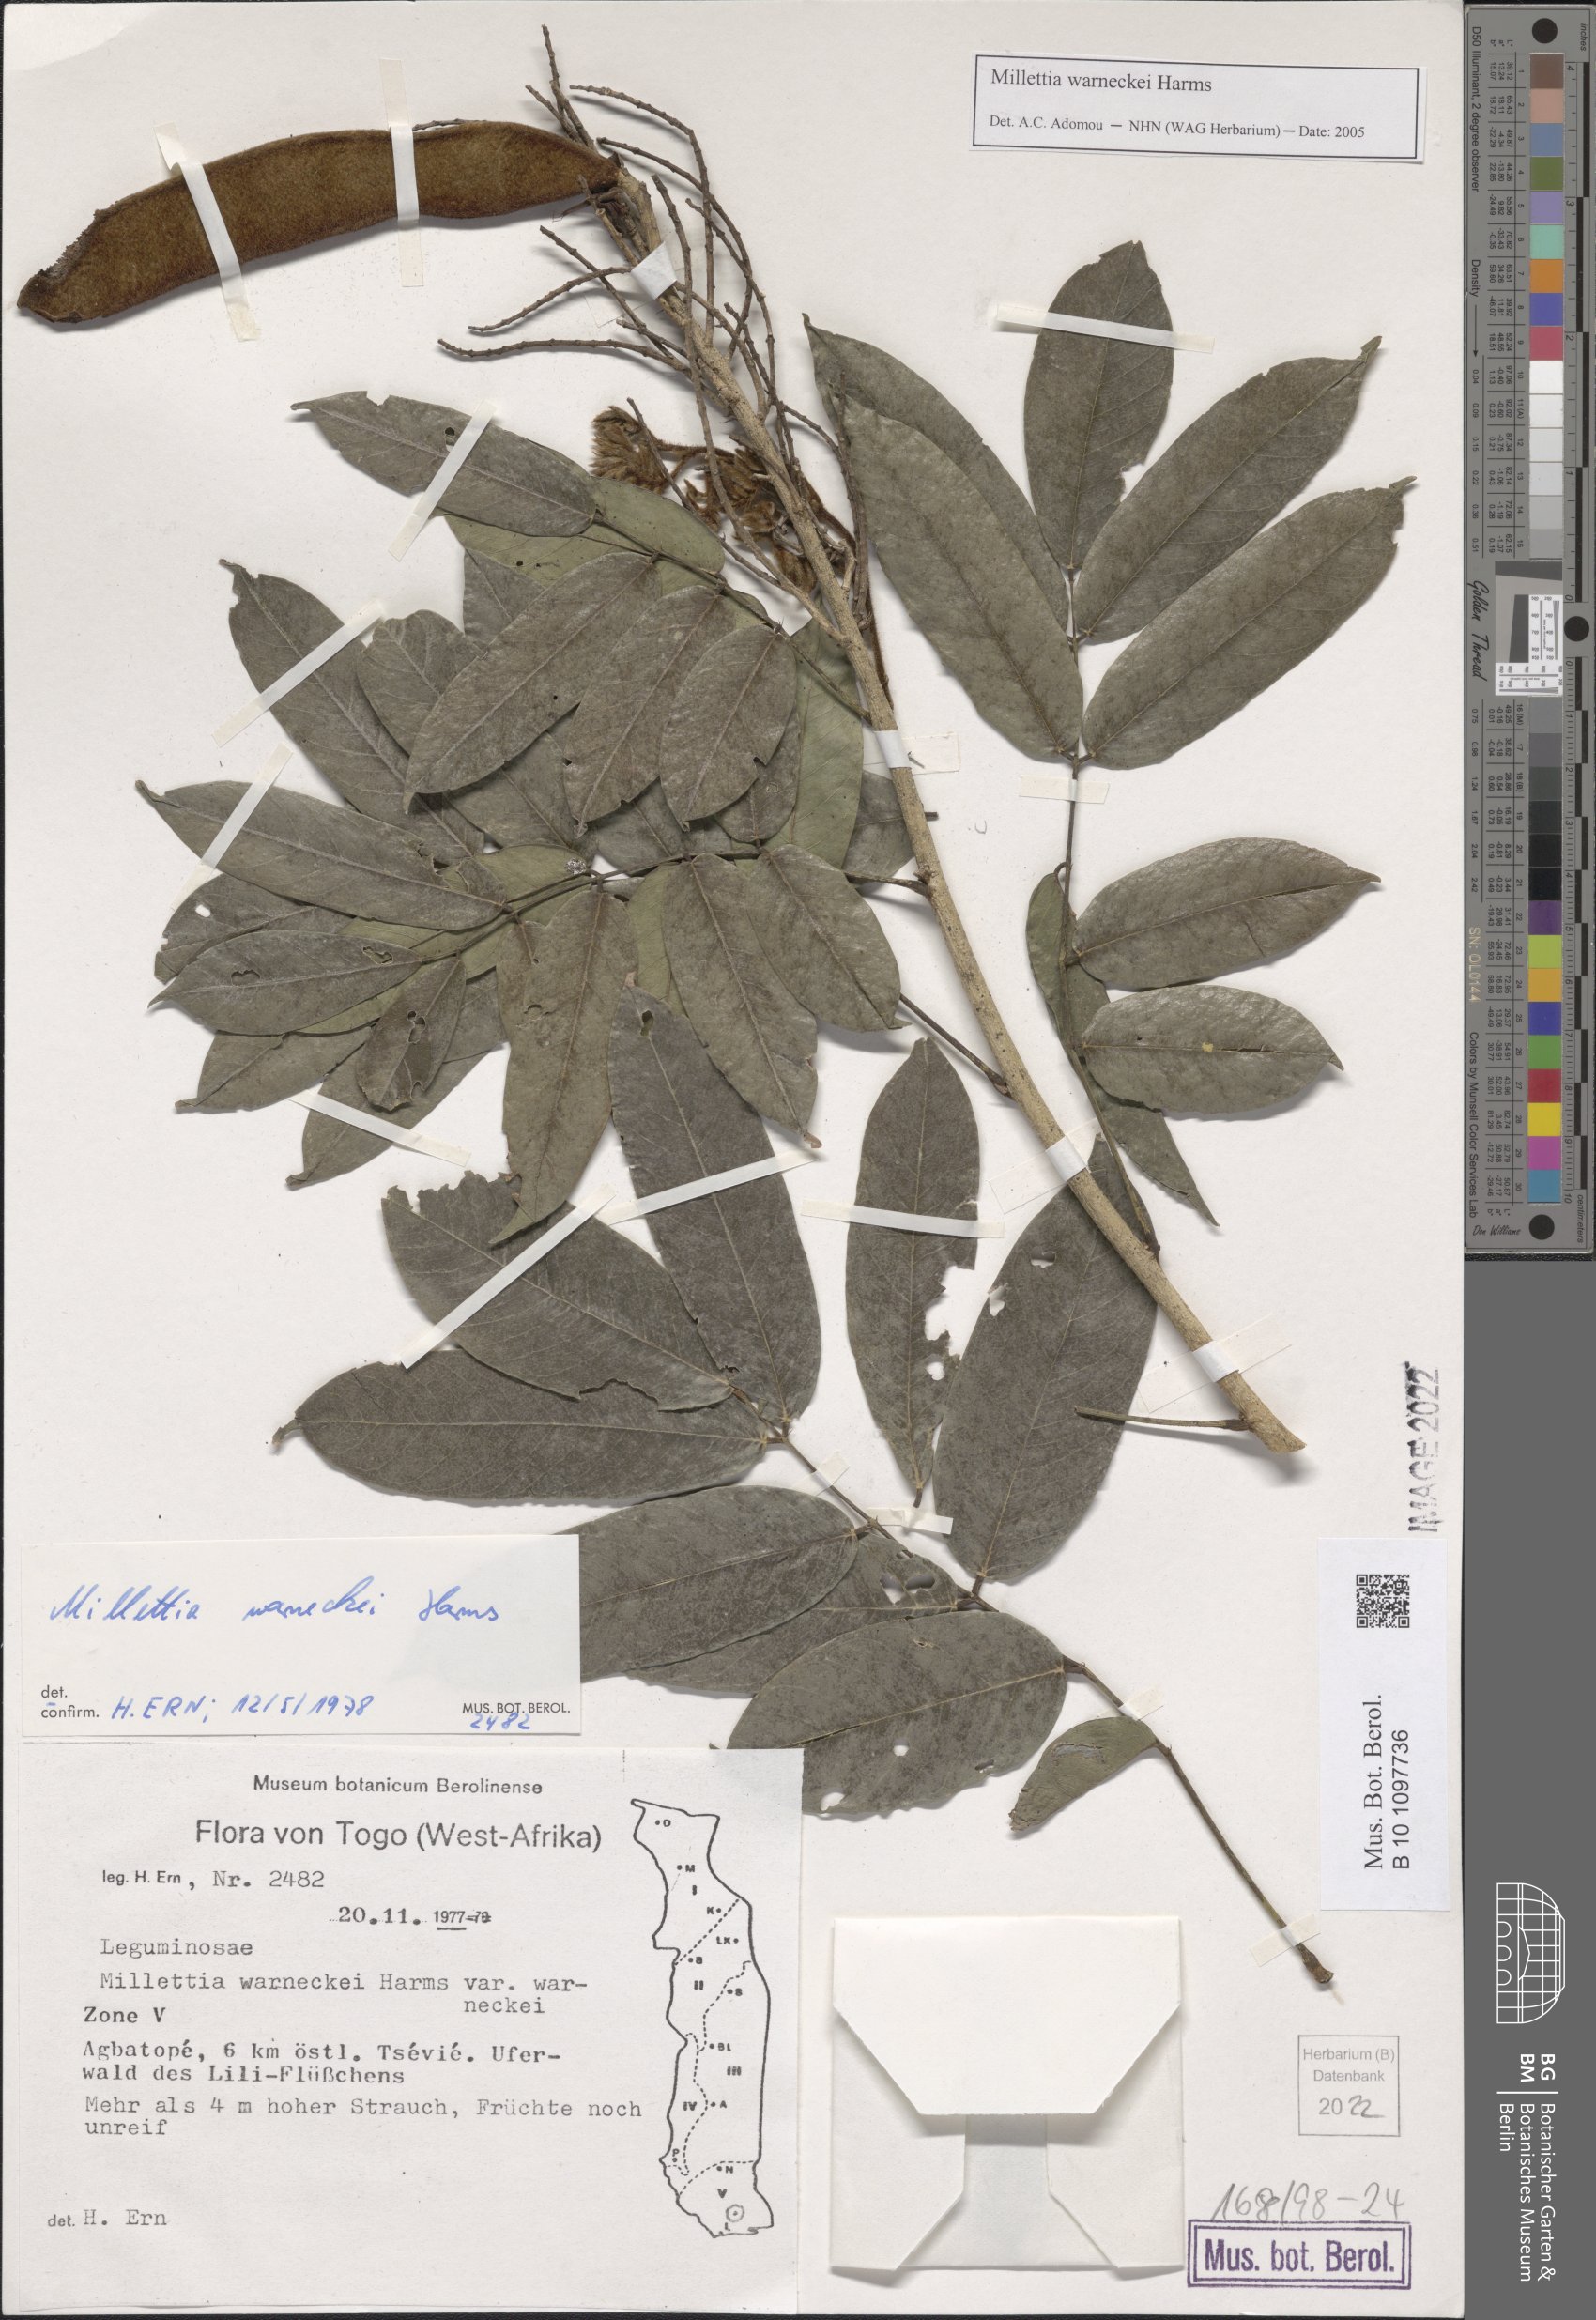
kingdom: Plantae
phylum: Tracheophyta
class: Magnoliopsida
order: Fabales
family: Fabaceae
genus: Millettia
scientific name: Millettia warneckei
